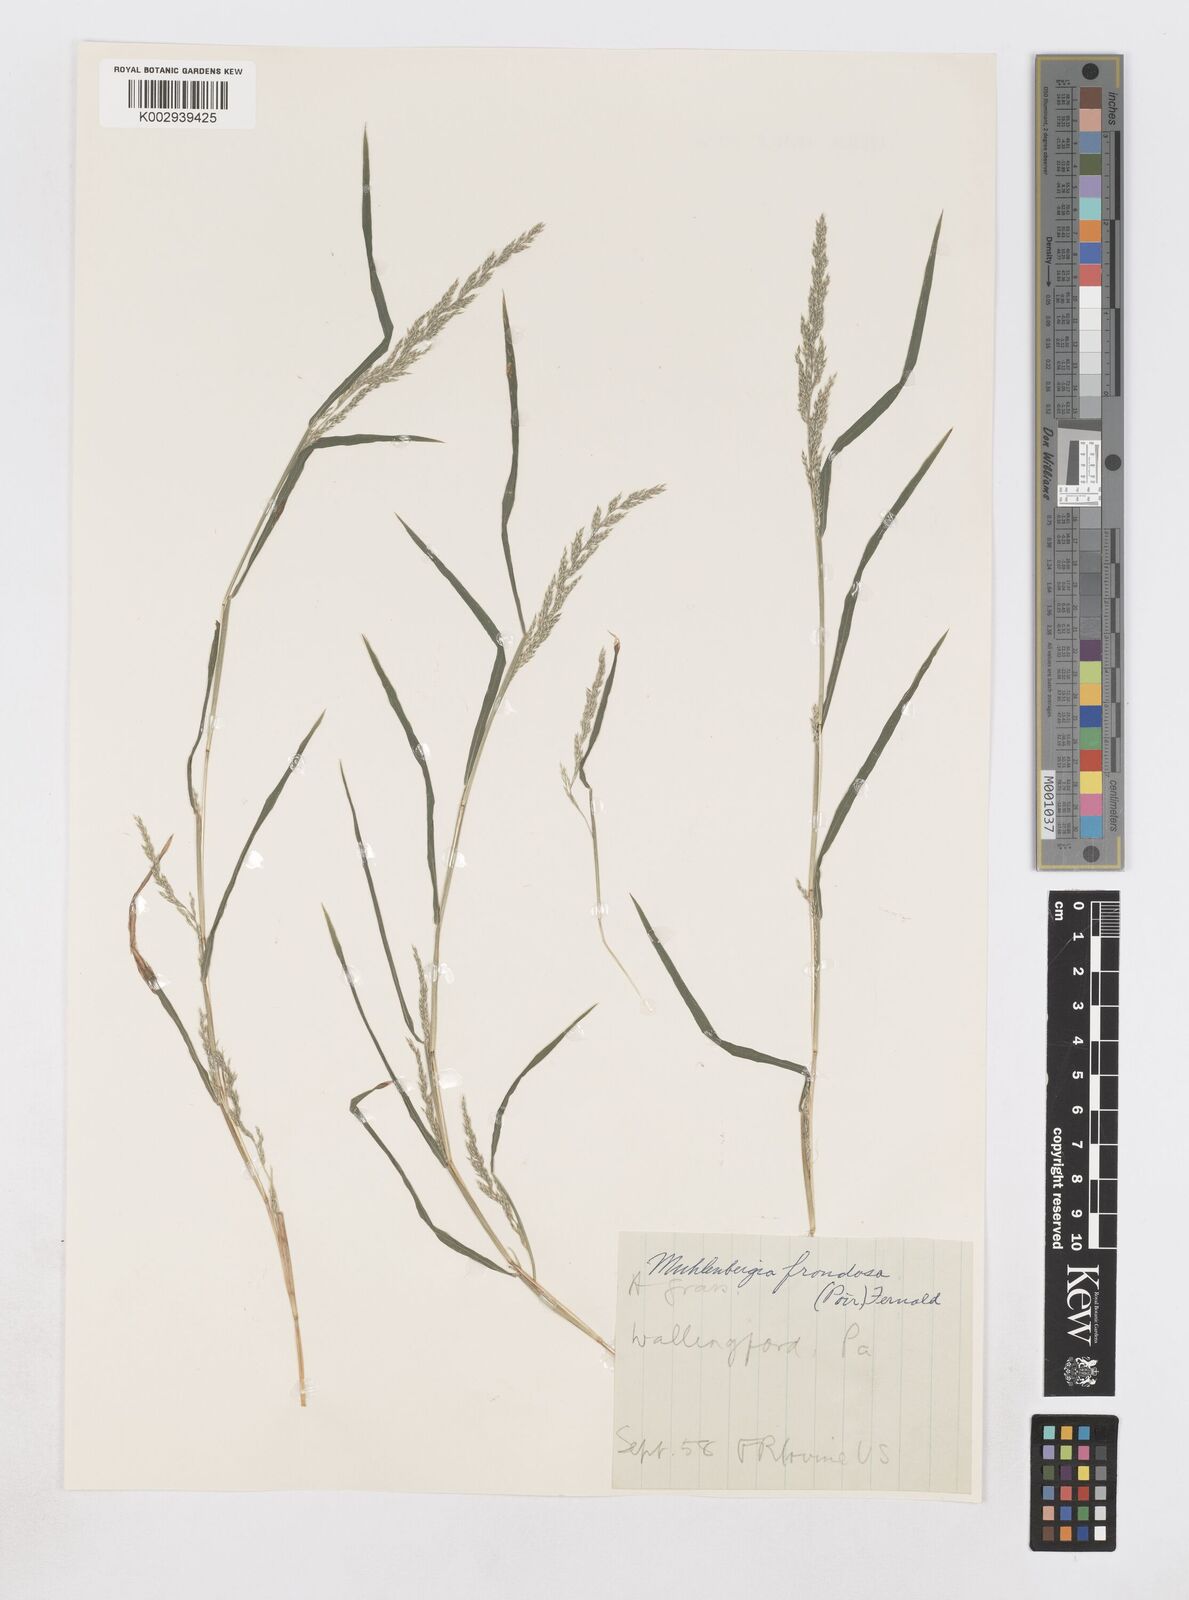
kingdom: Plantae
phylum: Tracheophyta
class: Liliopsida
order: Poales
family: Poaceae
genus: Muhlenbergia
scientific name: Muhlenbergia frondosa
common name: Common satingrass
